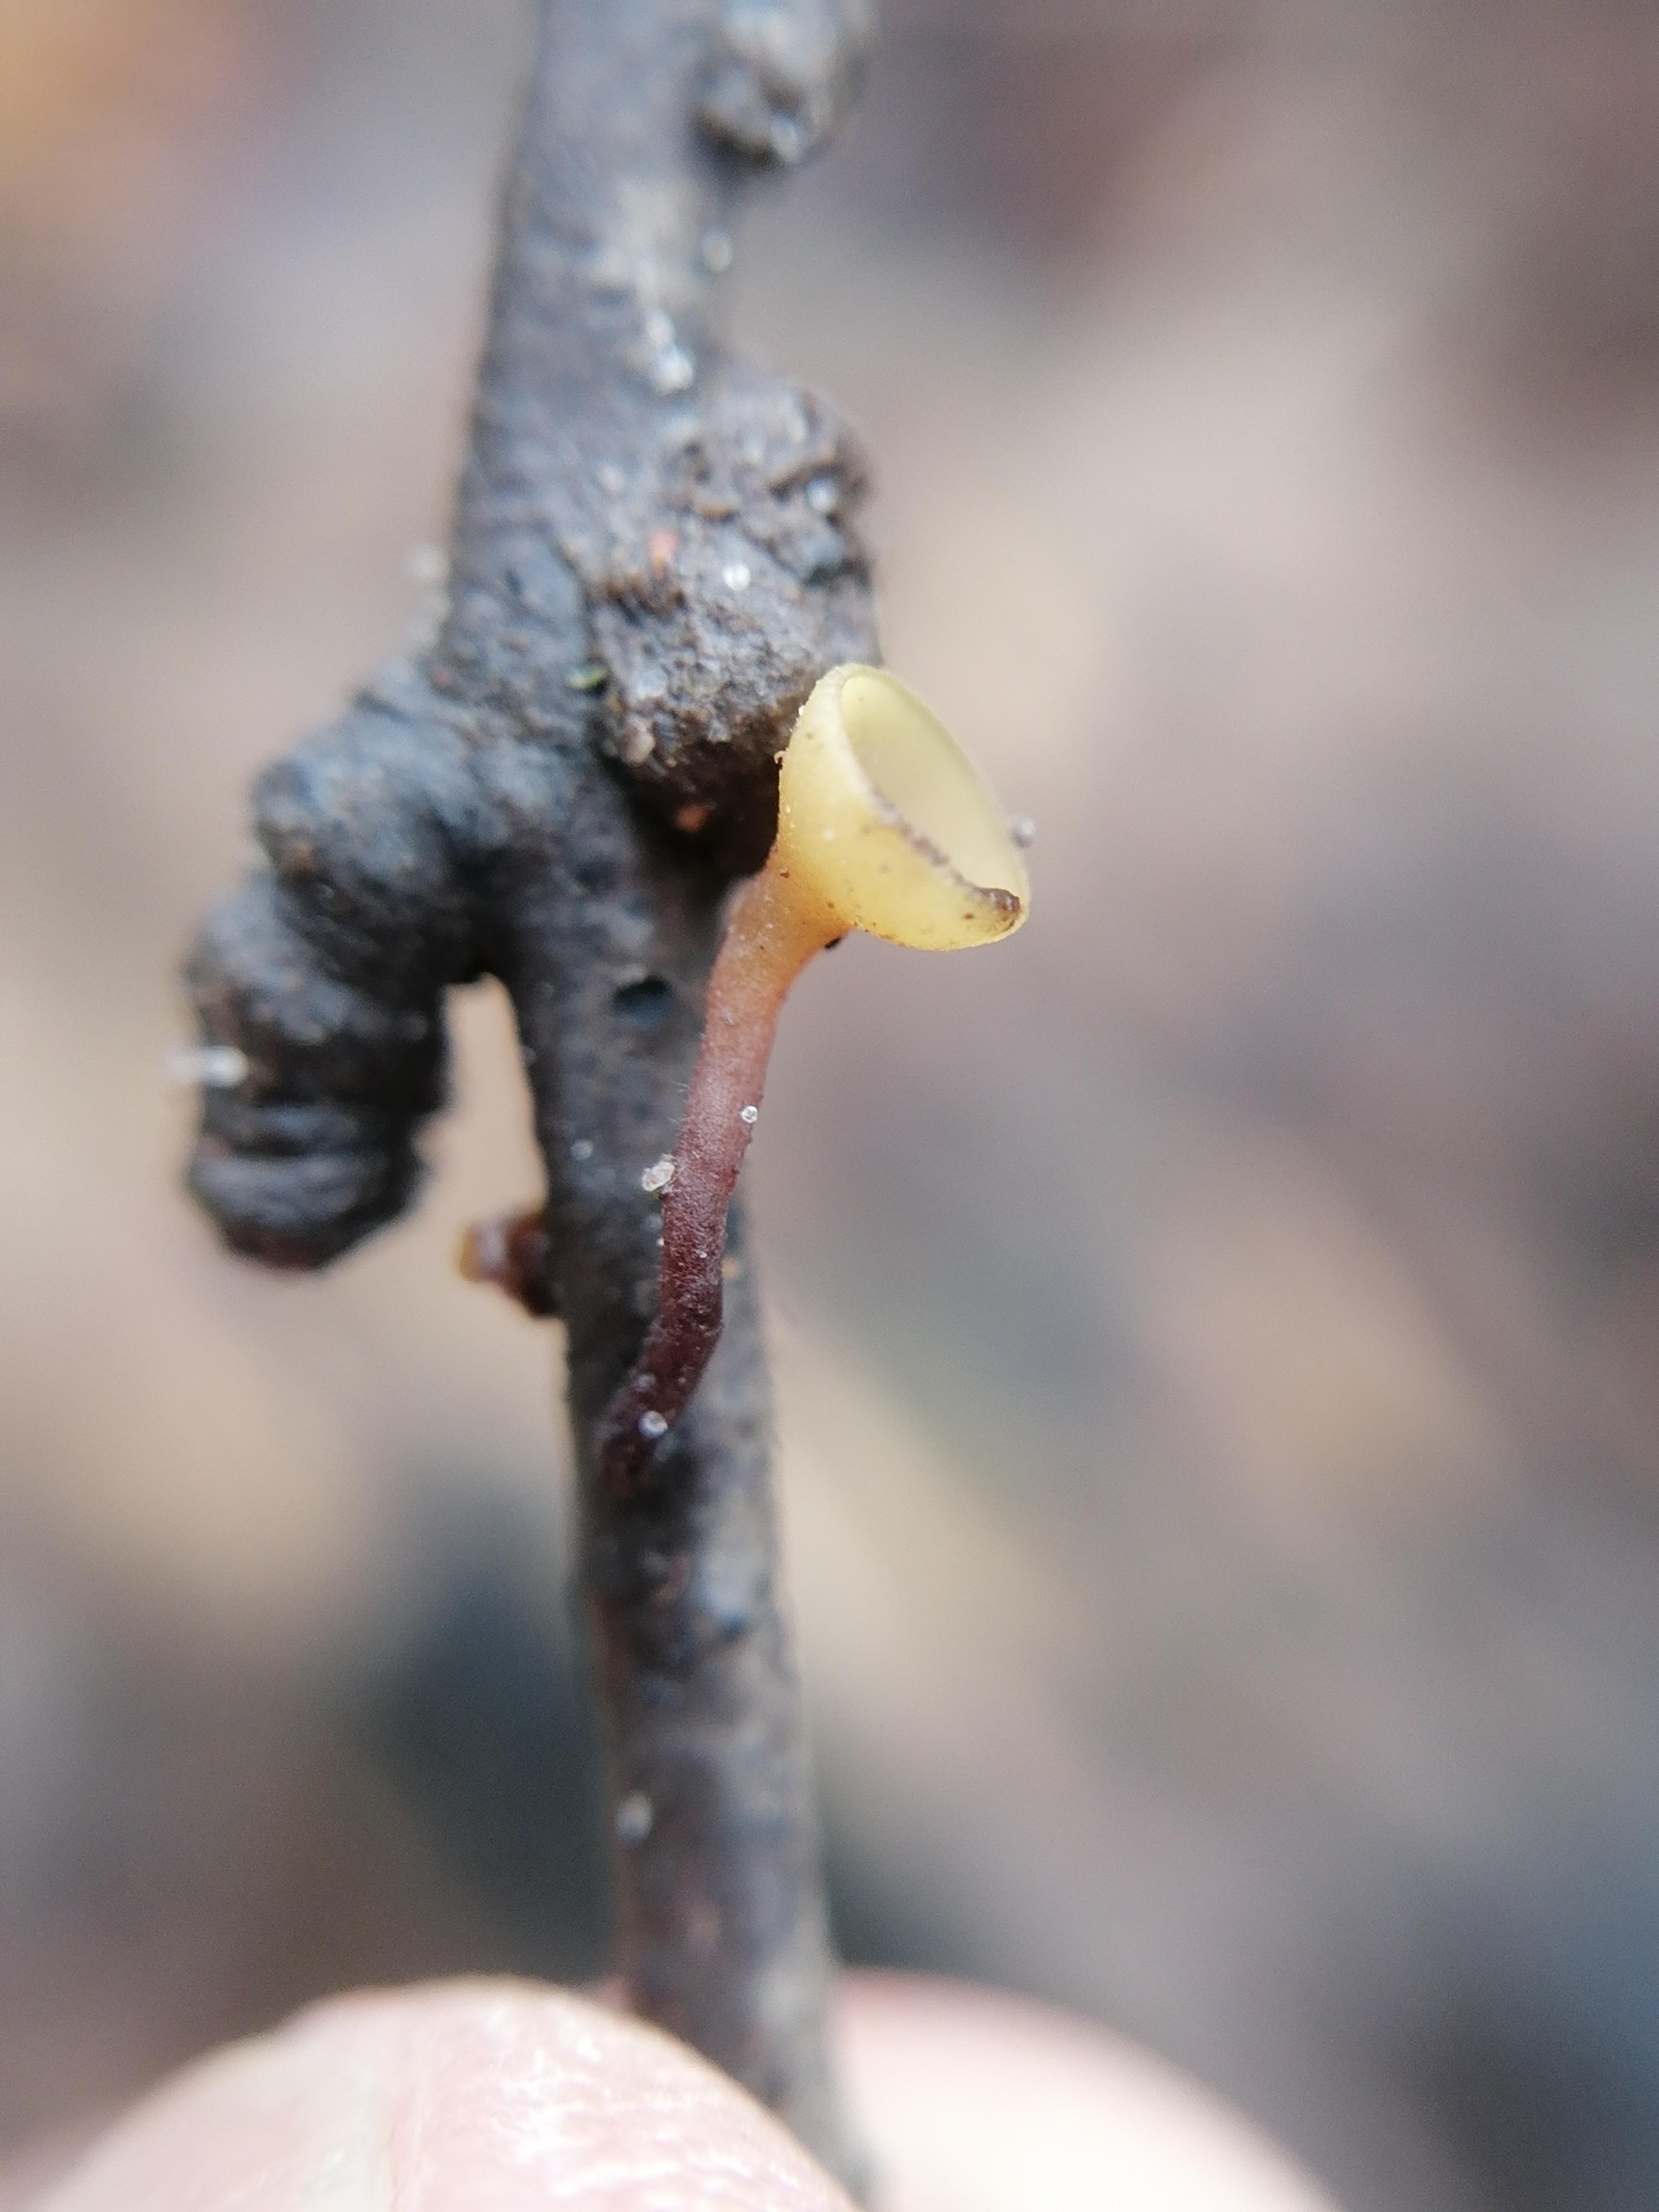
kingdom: Fungi
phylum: Ascomycota
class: Leotiomycetes
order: Helotiales
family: Rutstroemiaceae
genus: Rutstroemia
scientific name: Rutstroemia
